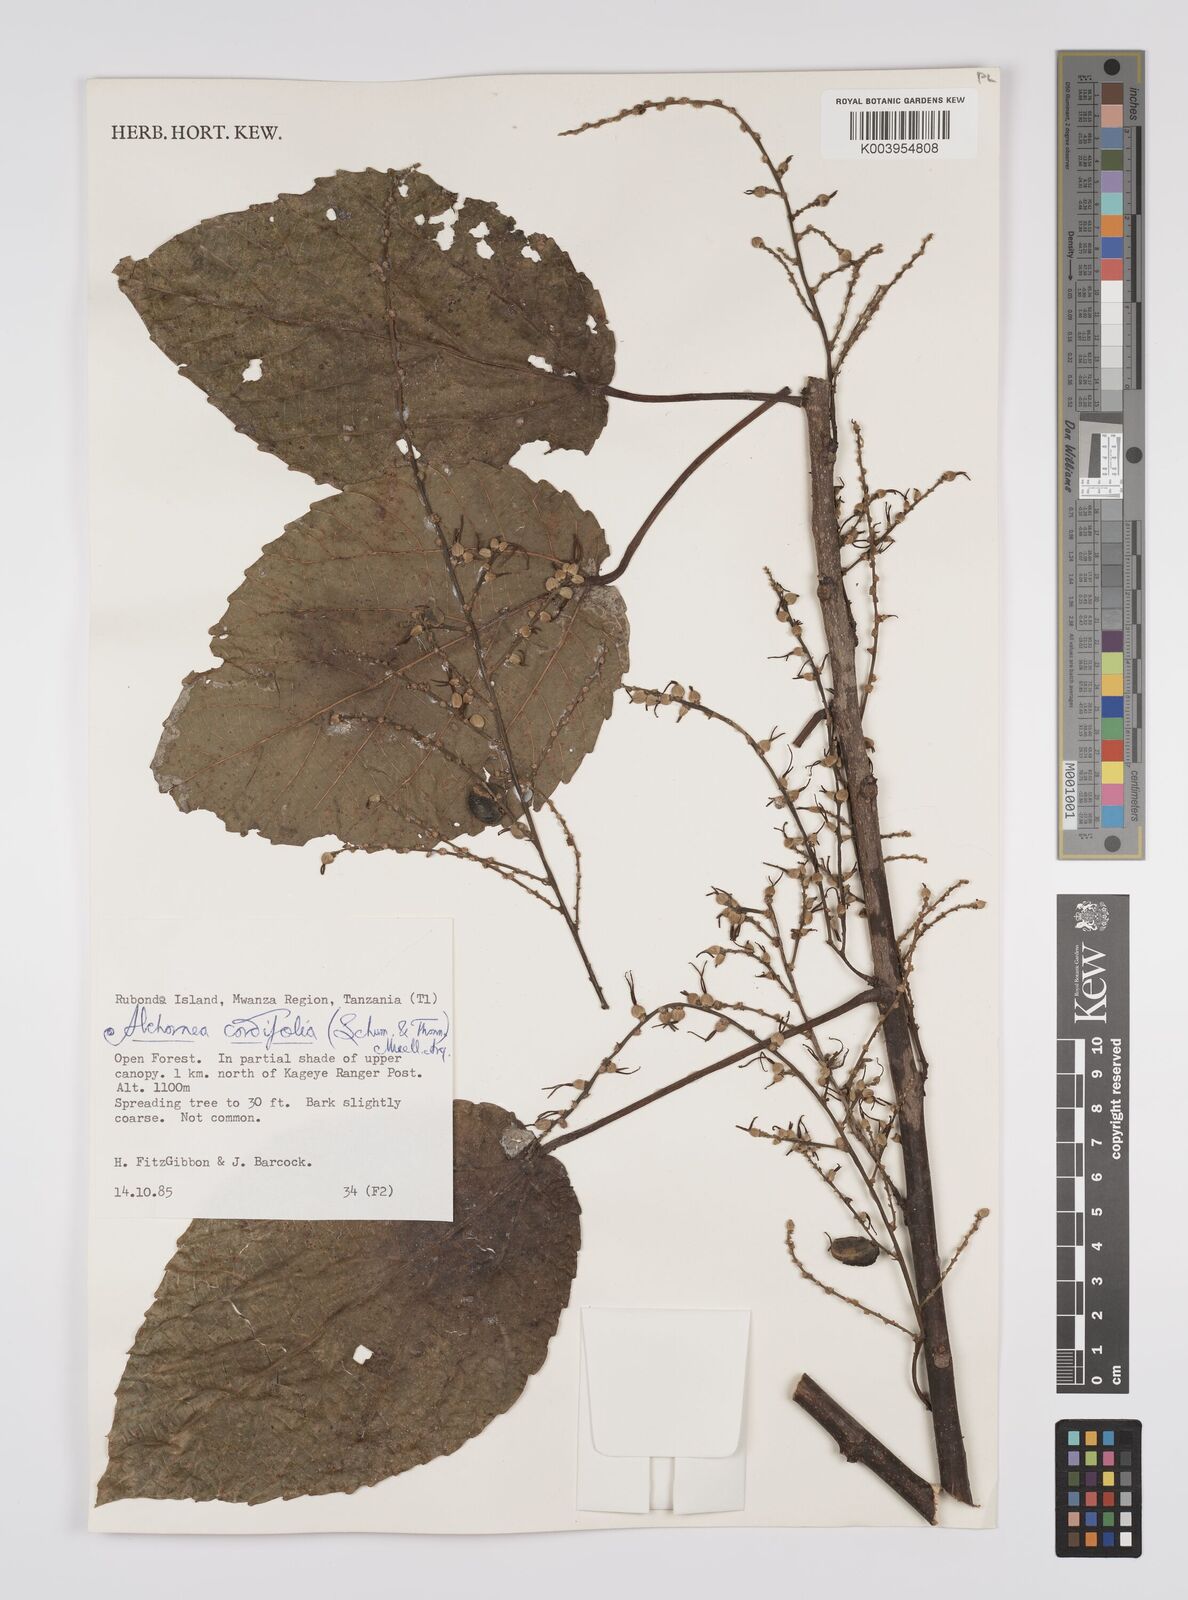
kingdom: Plantae
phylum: Tracheophyta
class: Magnoliopsida
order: Malpighiales
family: Euphorbiaceae
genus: Alchornea
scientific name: Alchornea cordifolia
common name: Christmasbush
